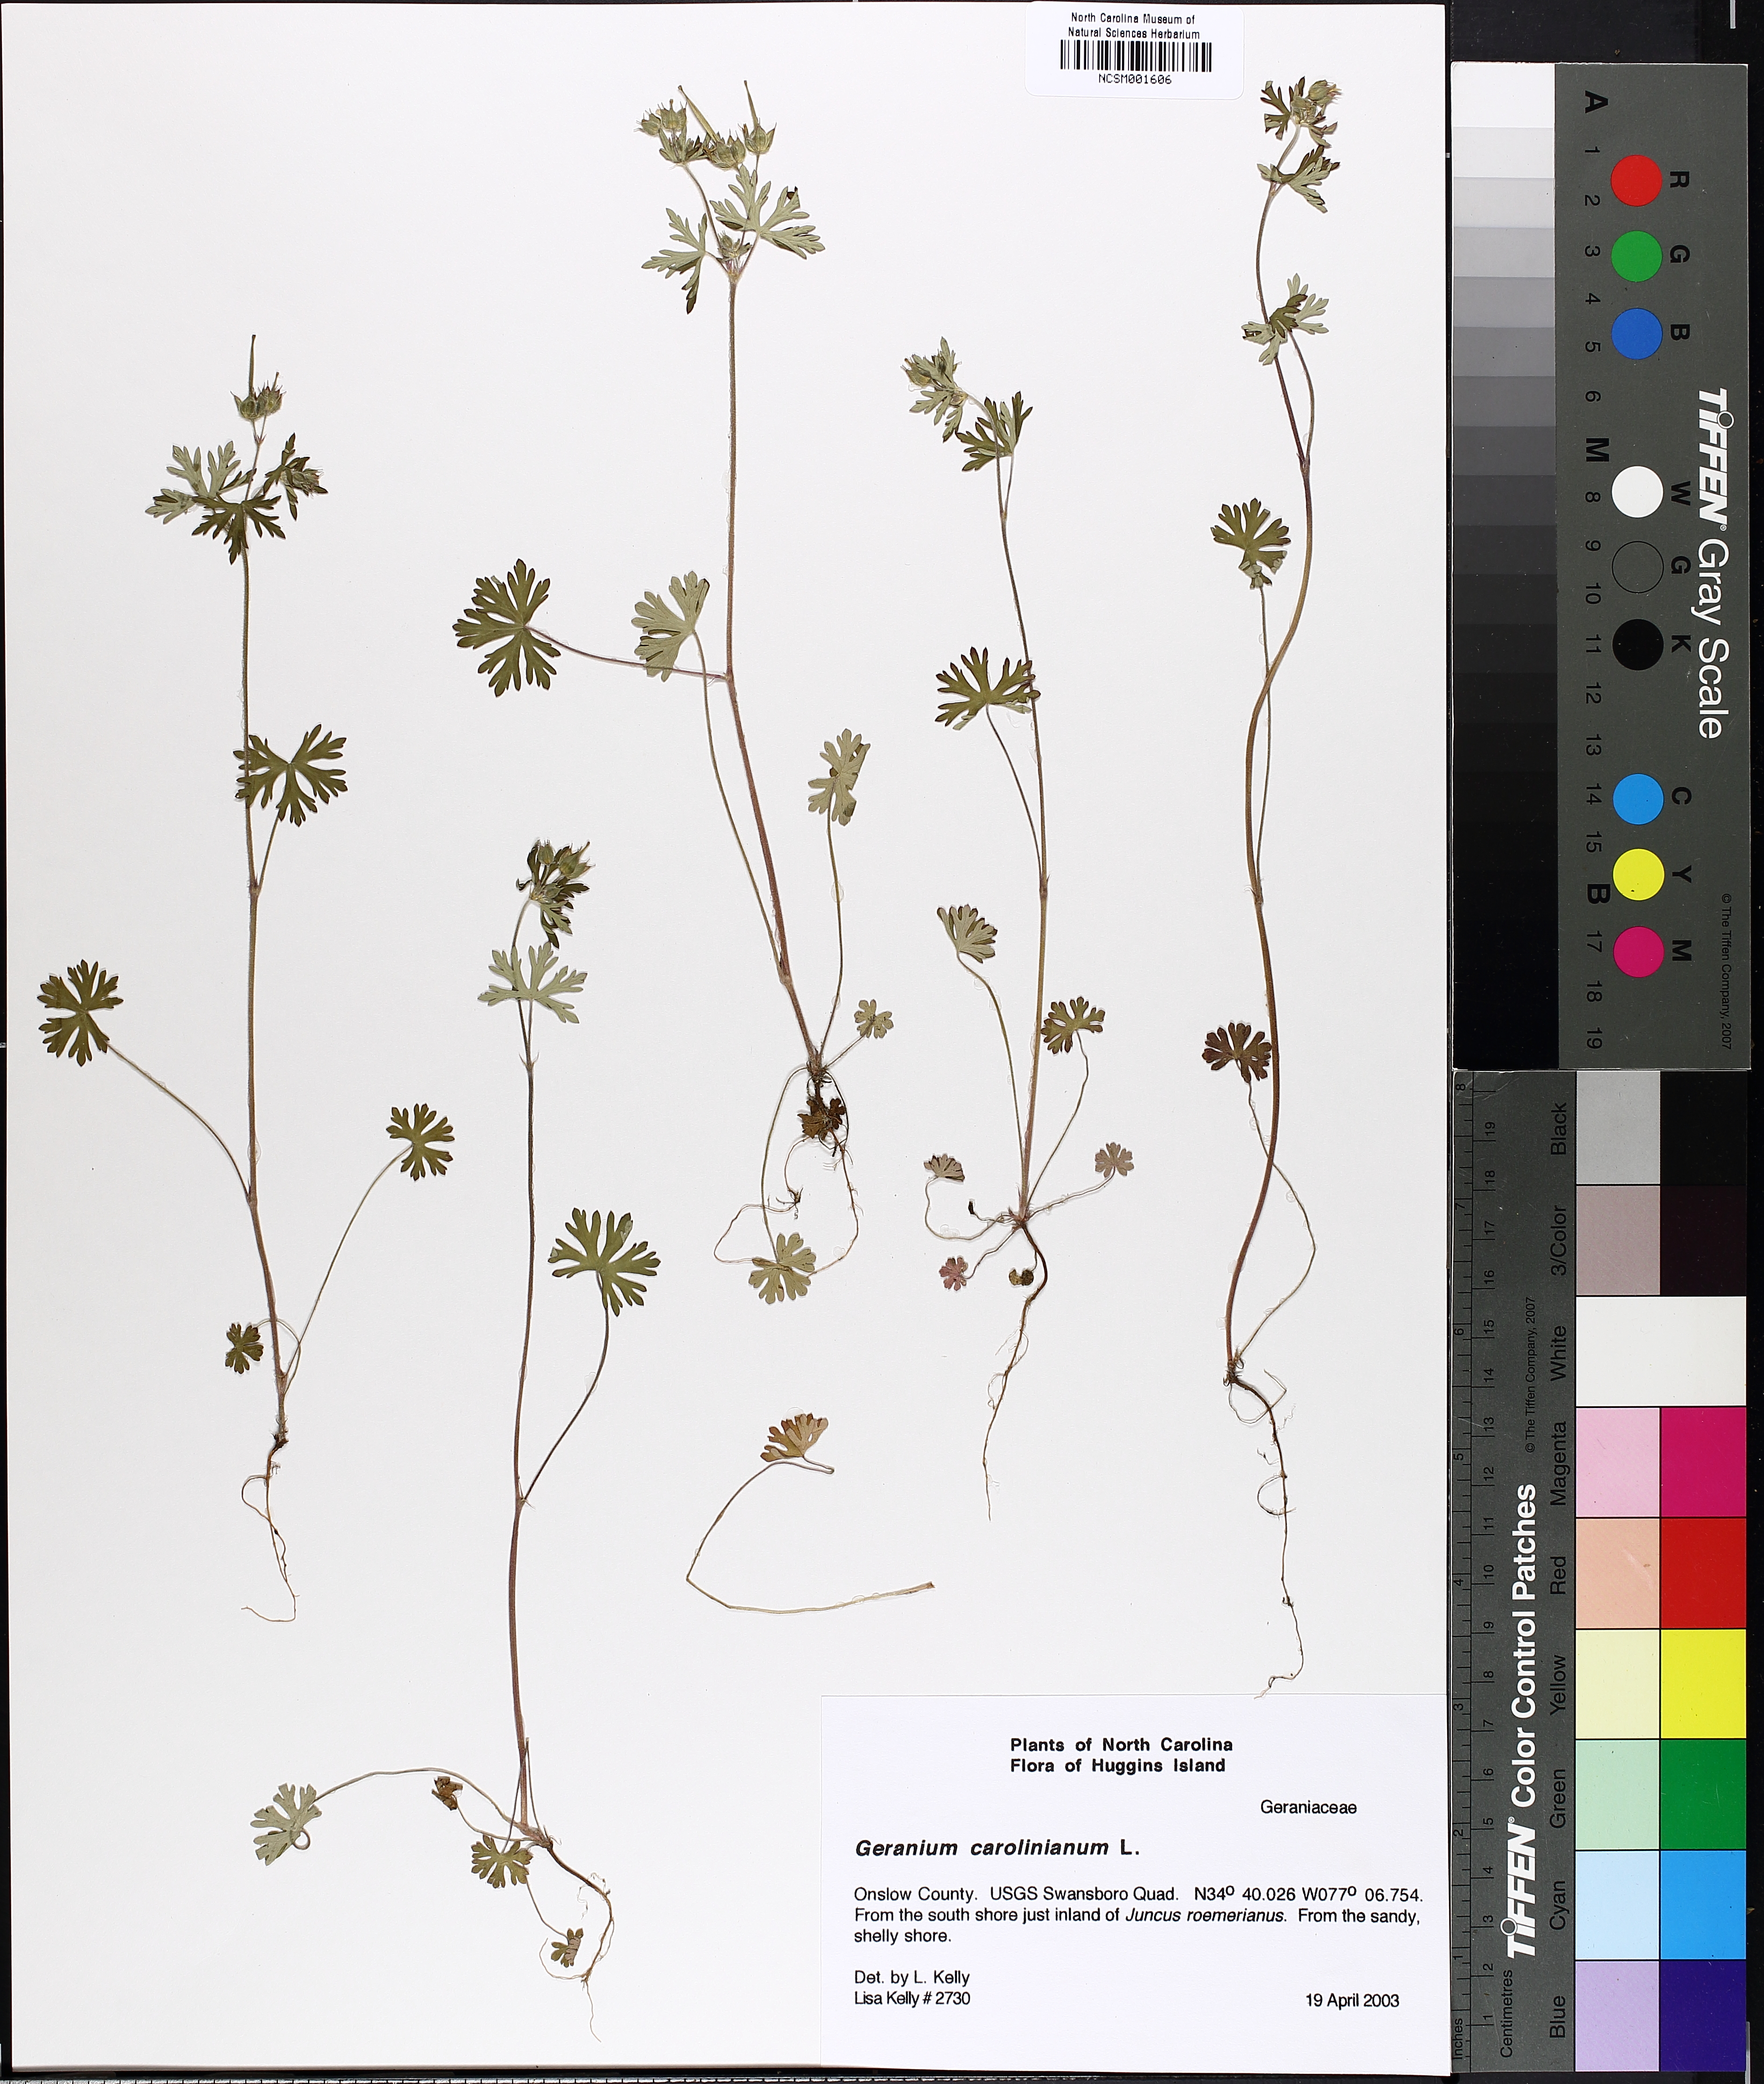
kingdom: Plantae
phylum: Tracheophyta
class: Magnoliopsida
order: Geraniales
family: Geraniaceae
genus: Geranium
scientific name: Geranium carolinianum
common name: Carolina crane's-bill
